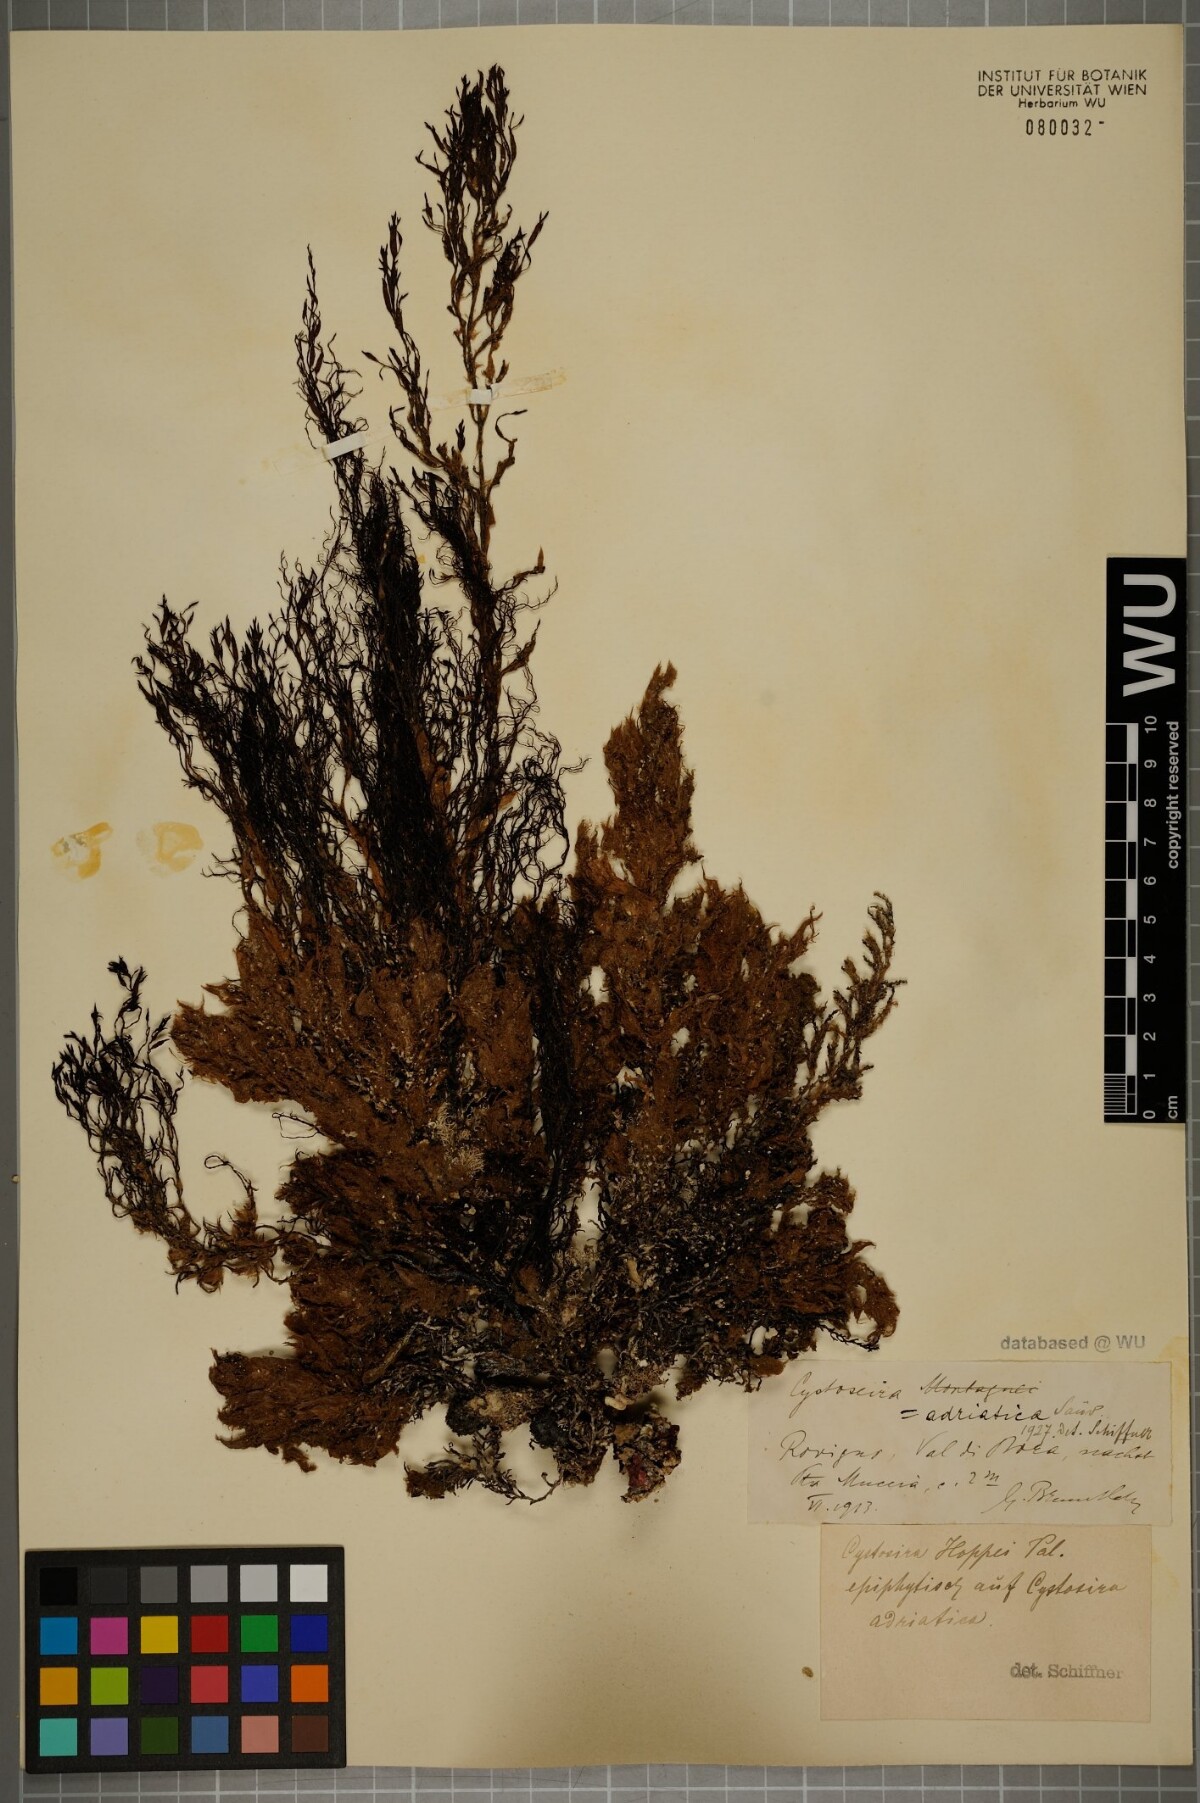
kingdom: Chromista
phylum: Ochrophyta
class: Phaeophyceae
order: Fucales
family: Sargassaceae
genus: Cystoseira
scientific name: Cystoseira Gongolaria barbata
